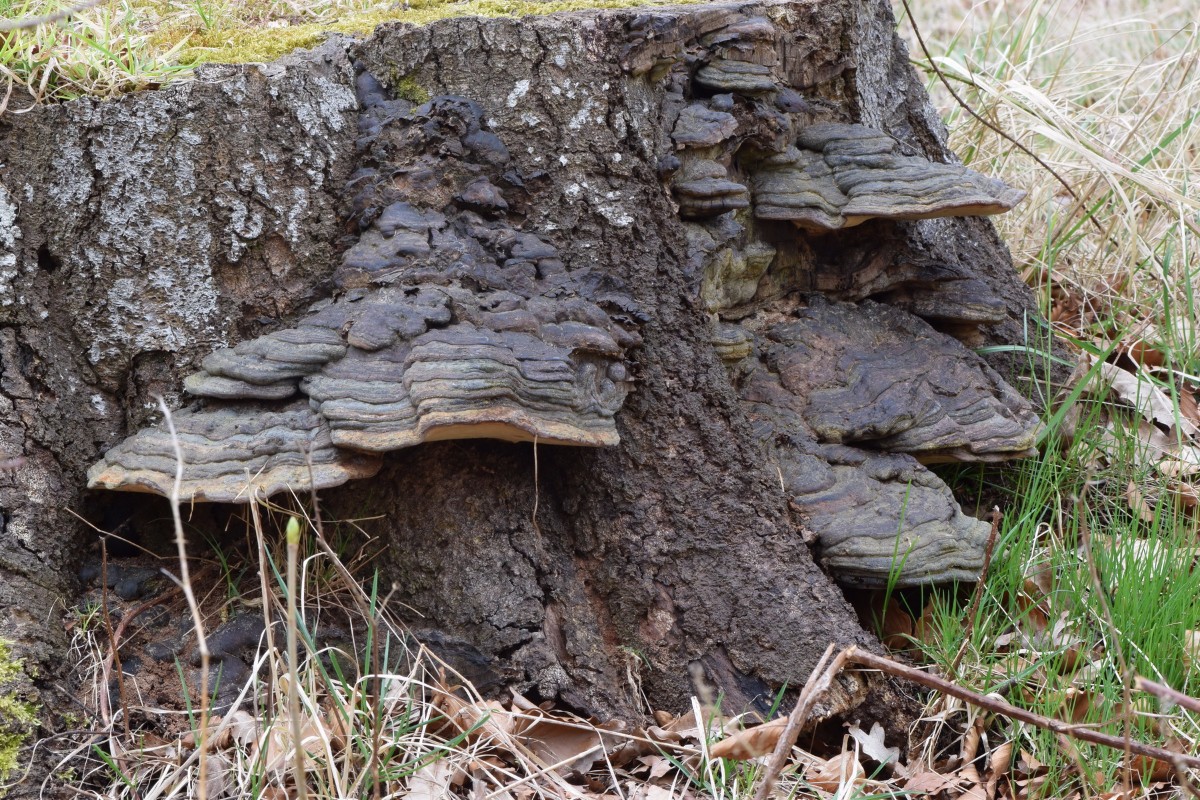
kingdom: Fungi
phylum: Basidiomycota
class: Agaricomycetes
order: Polyporales
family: Polyporaceae
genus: Ganoderma
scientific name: Ganoderma pfeifferi
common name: kobberrød lakporesvamp
